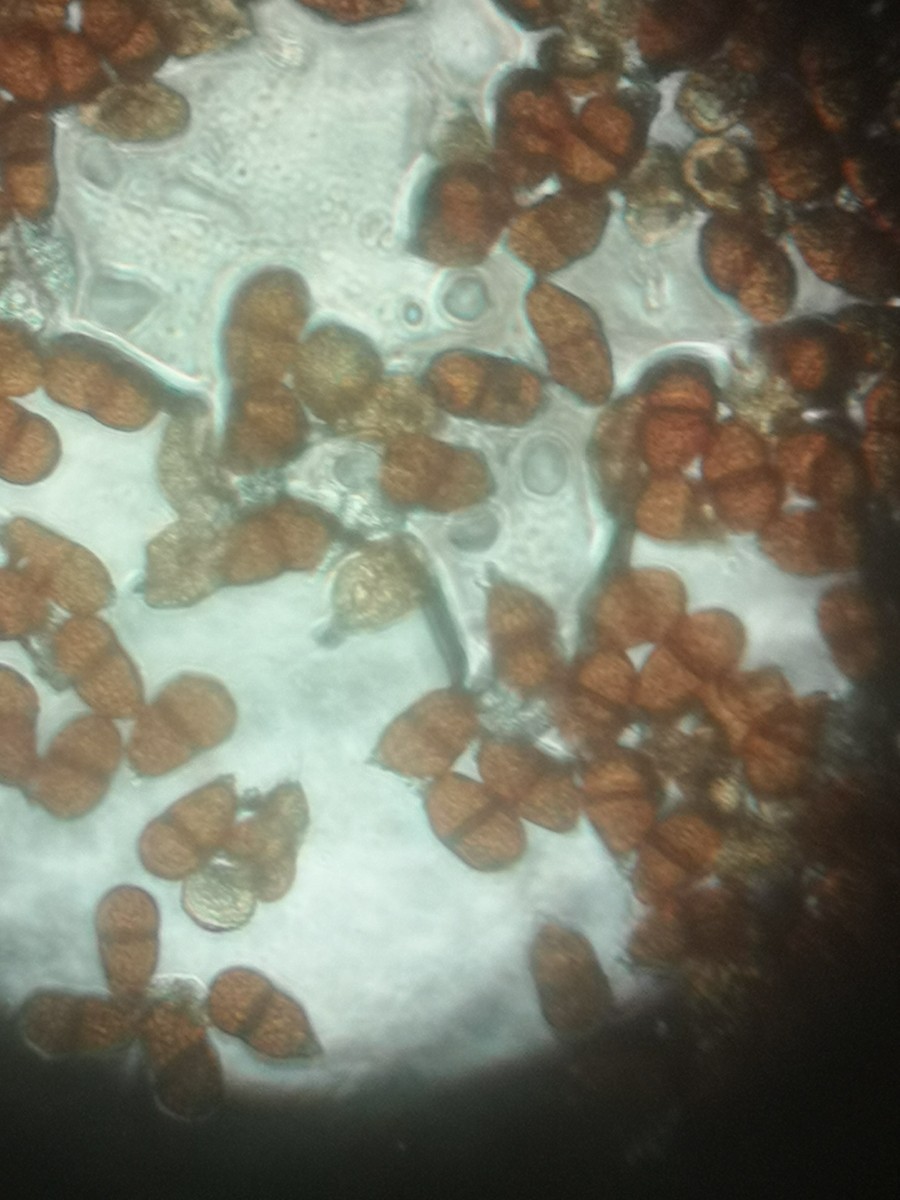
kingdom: Fungi
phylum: Basidiomycota
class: Pucciniomycetes
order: Pucciniales
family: Pucciniaceae
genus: Puccinia
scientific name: Puccinia chaerophylli
